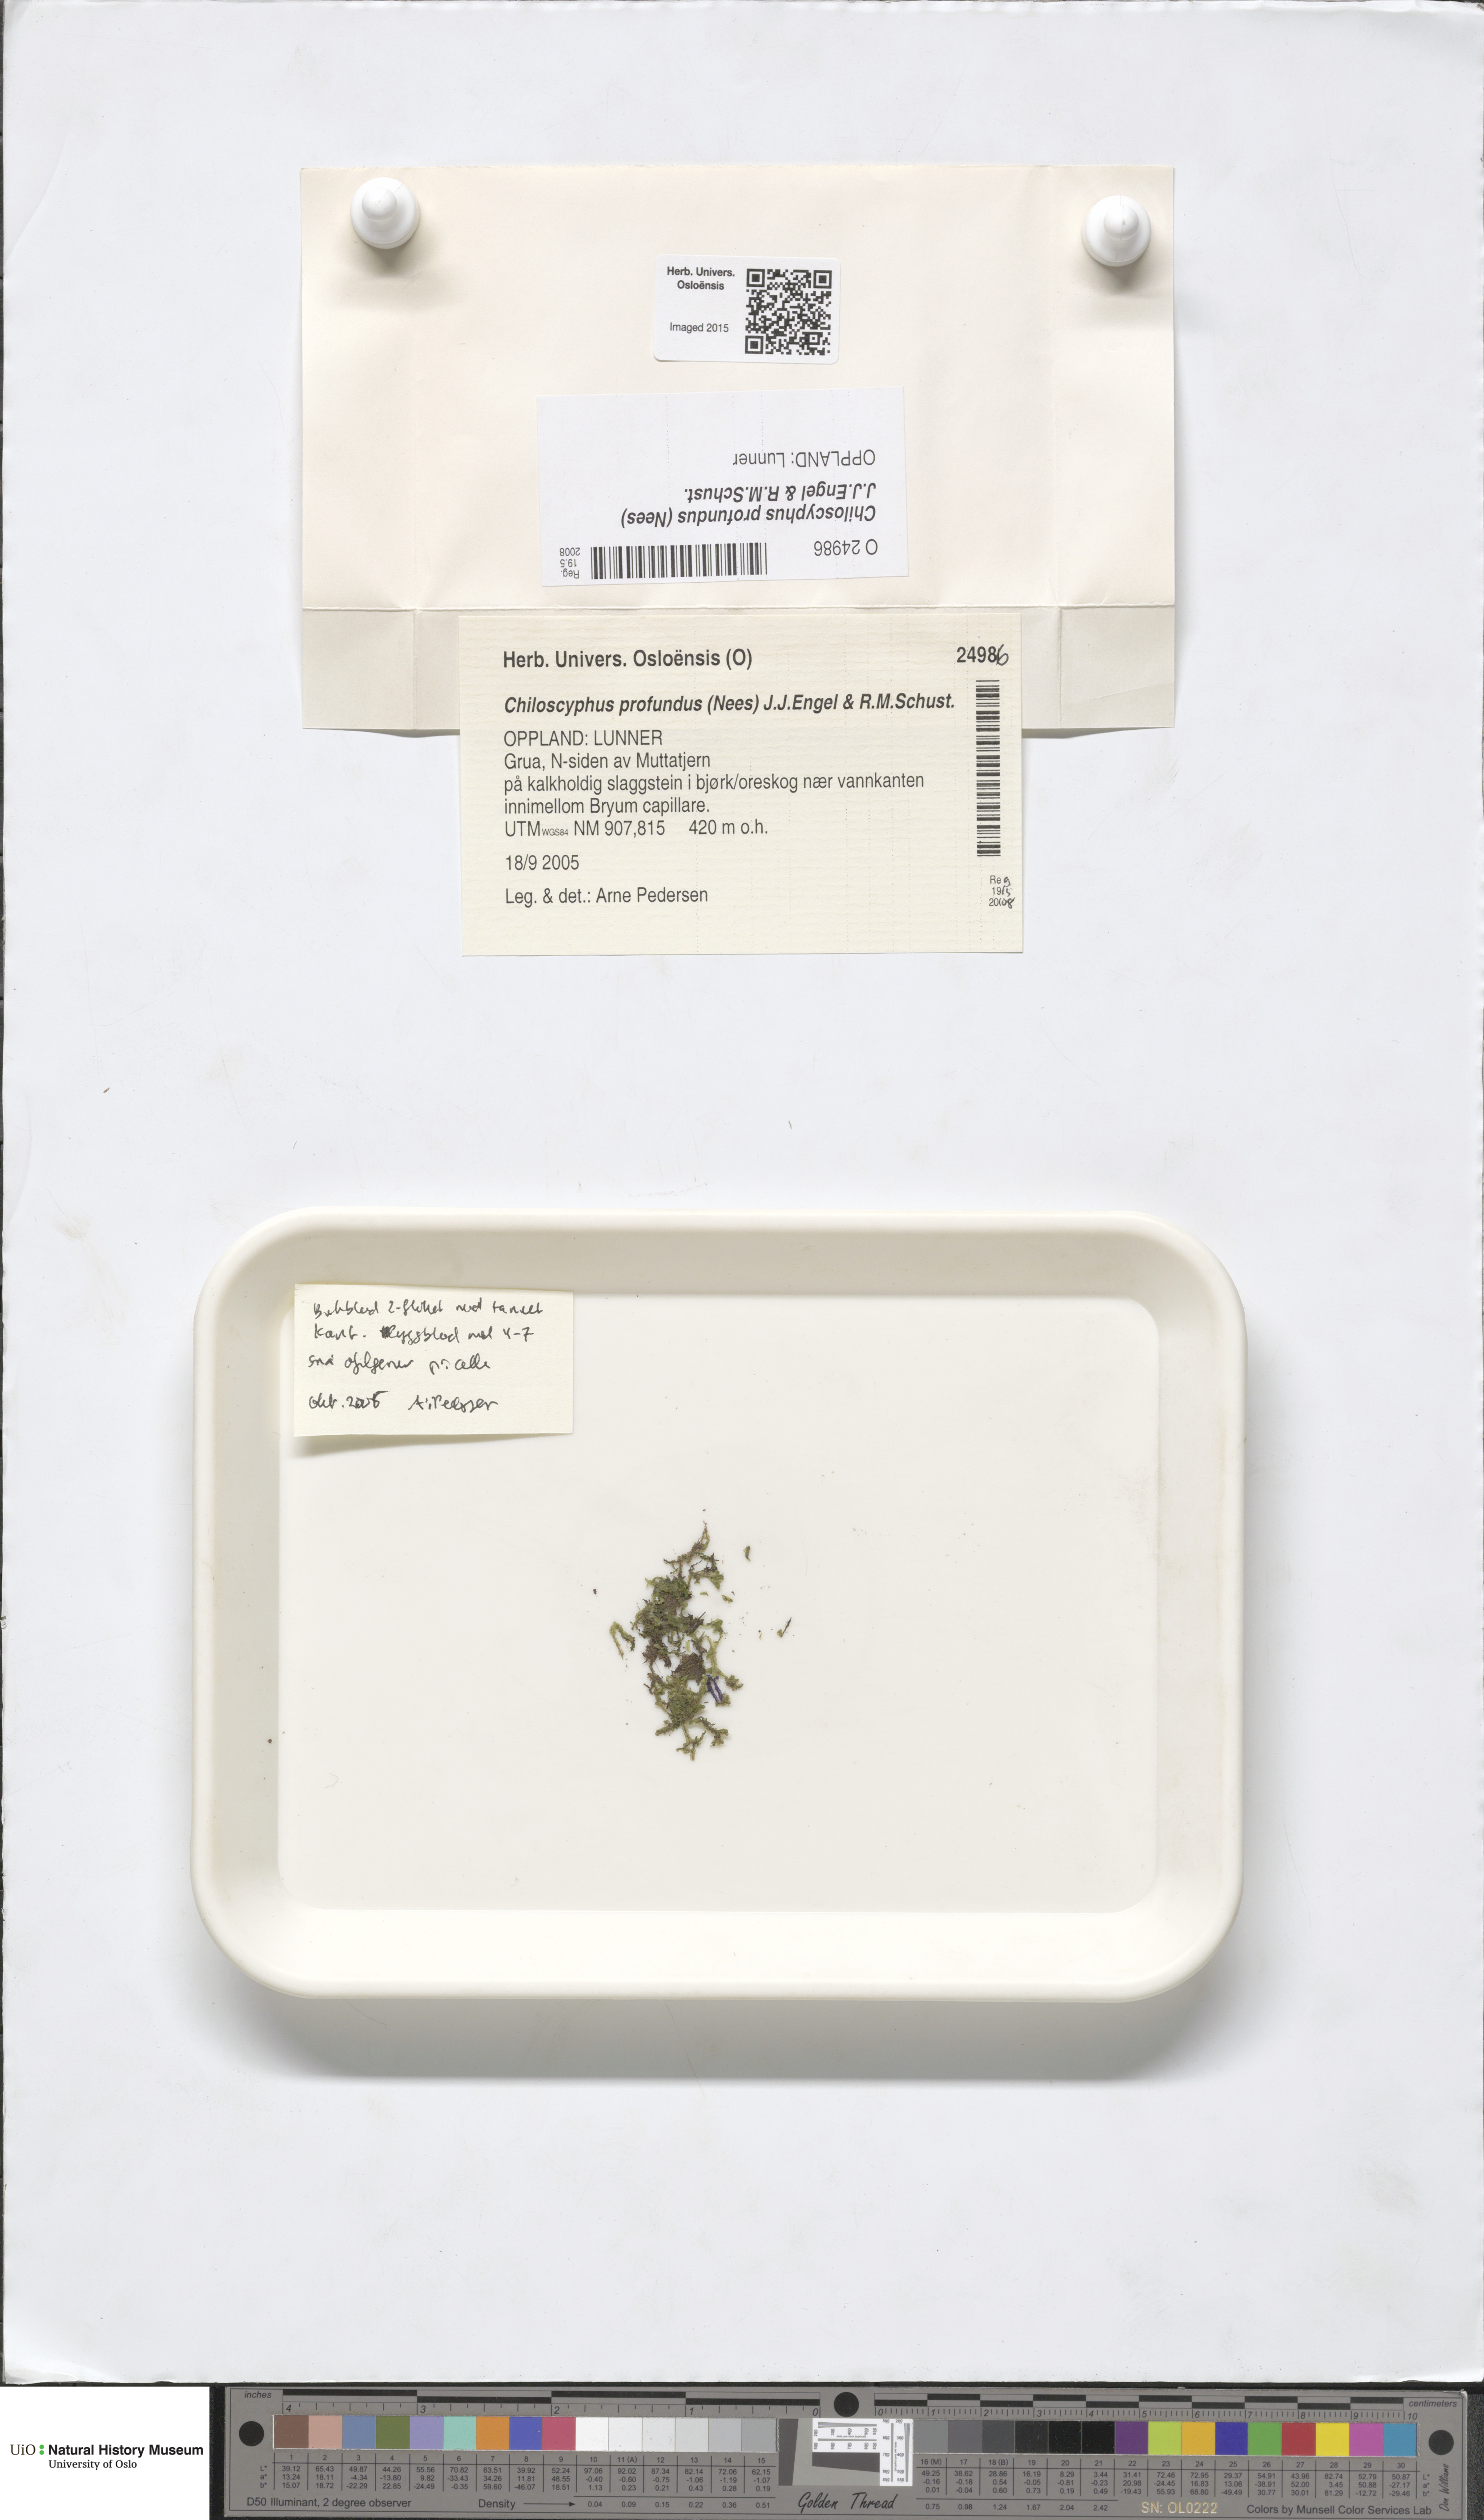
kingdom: Plantae
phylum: Marchantiophyta
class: Jungermanniopsida
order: Jungermanniales
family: Lophocoleaceae
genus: Lophocolea
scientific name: Lophocolea heterophylla
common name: Variable-leaved crestwort
